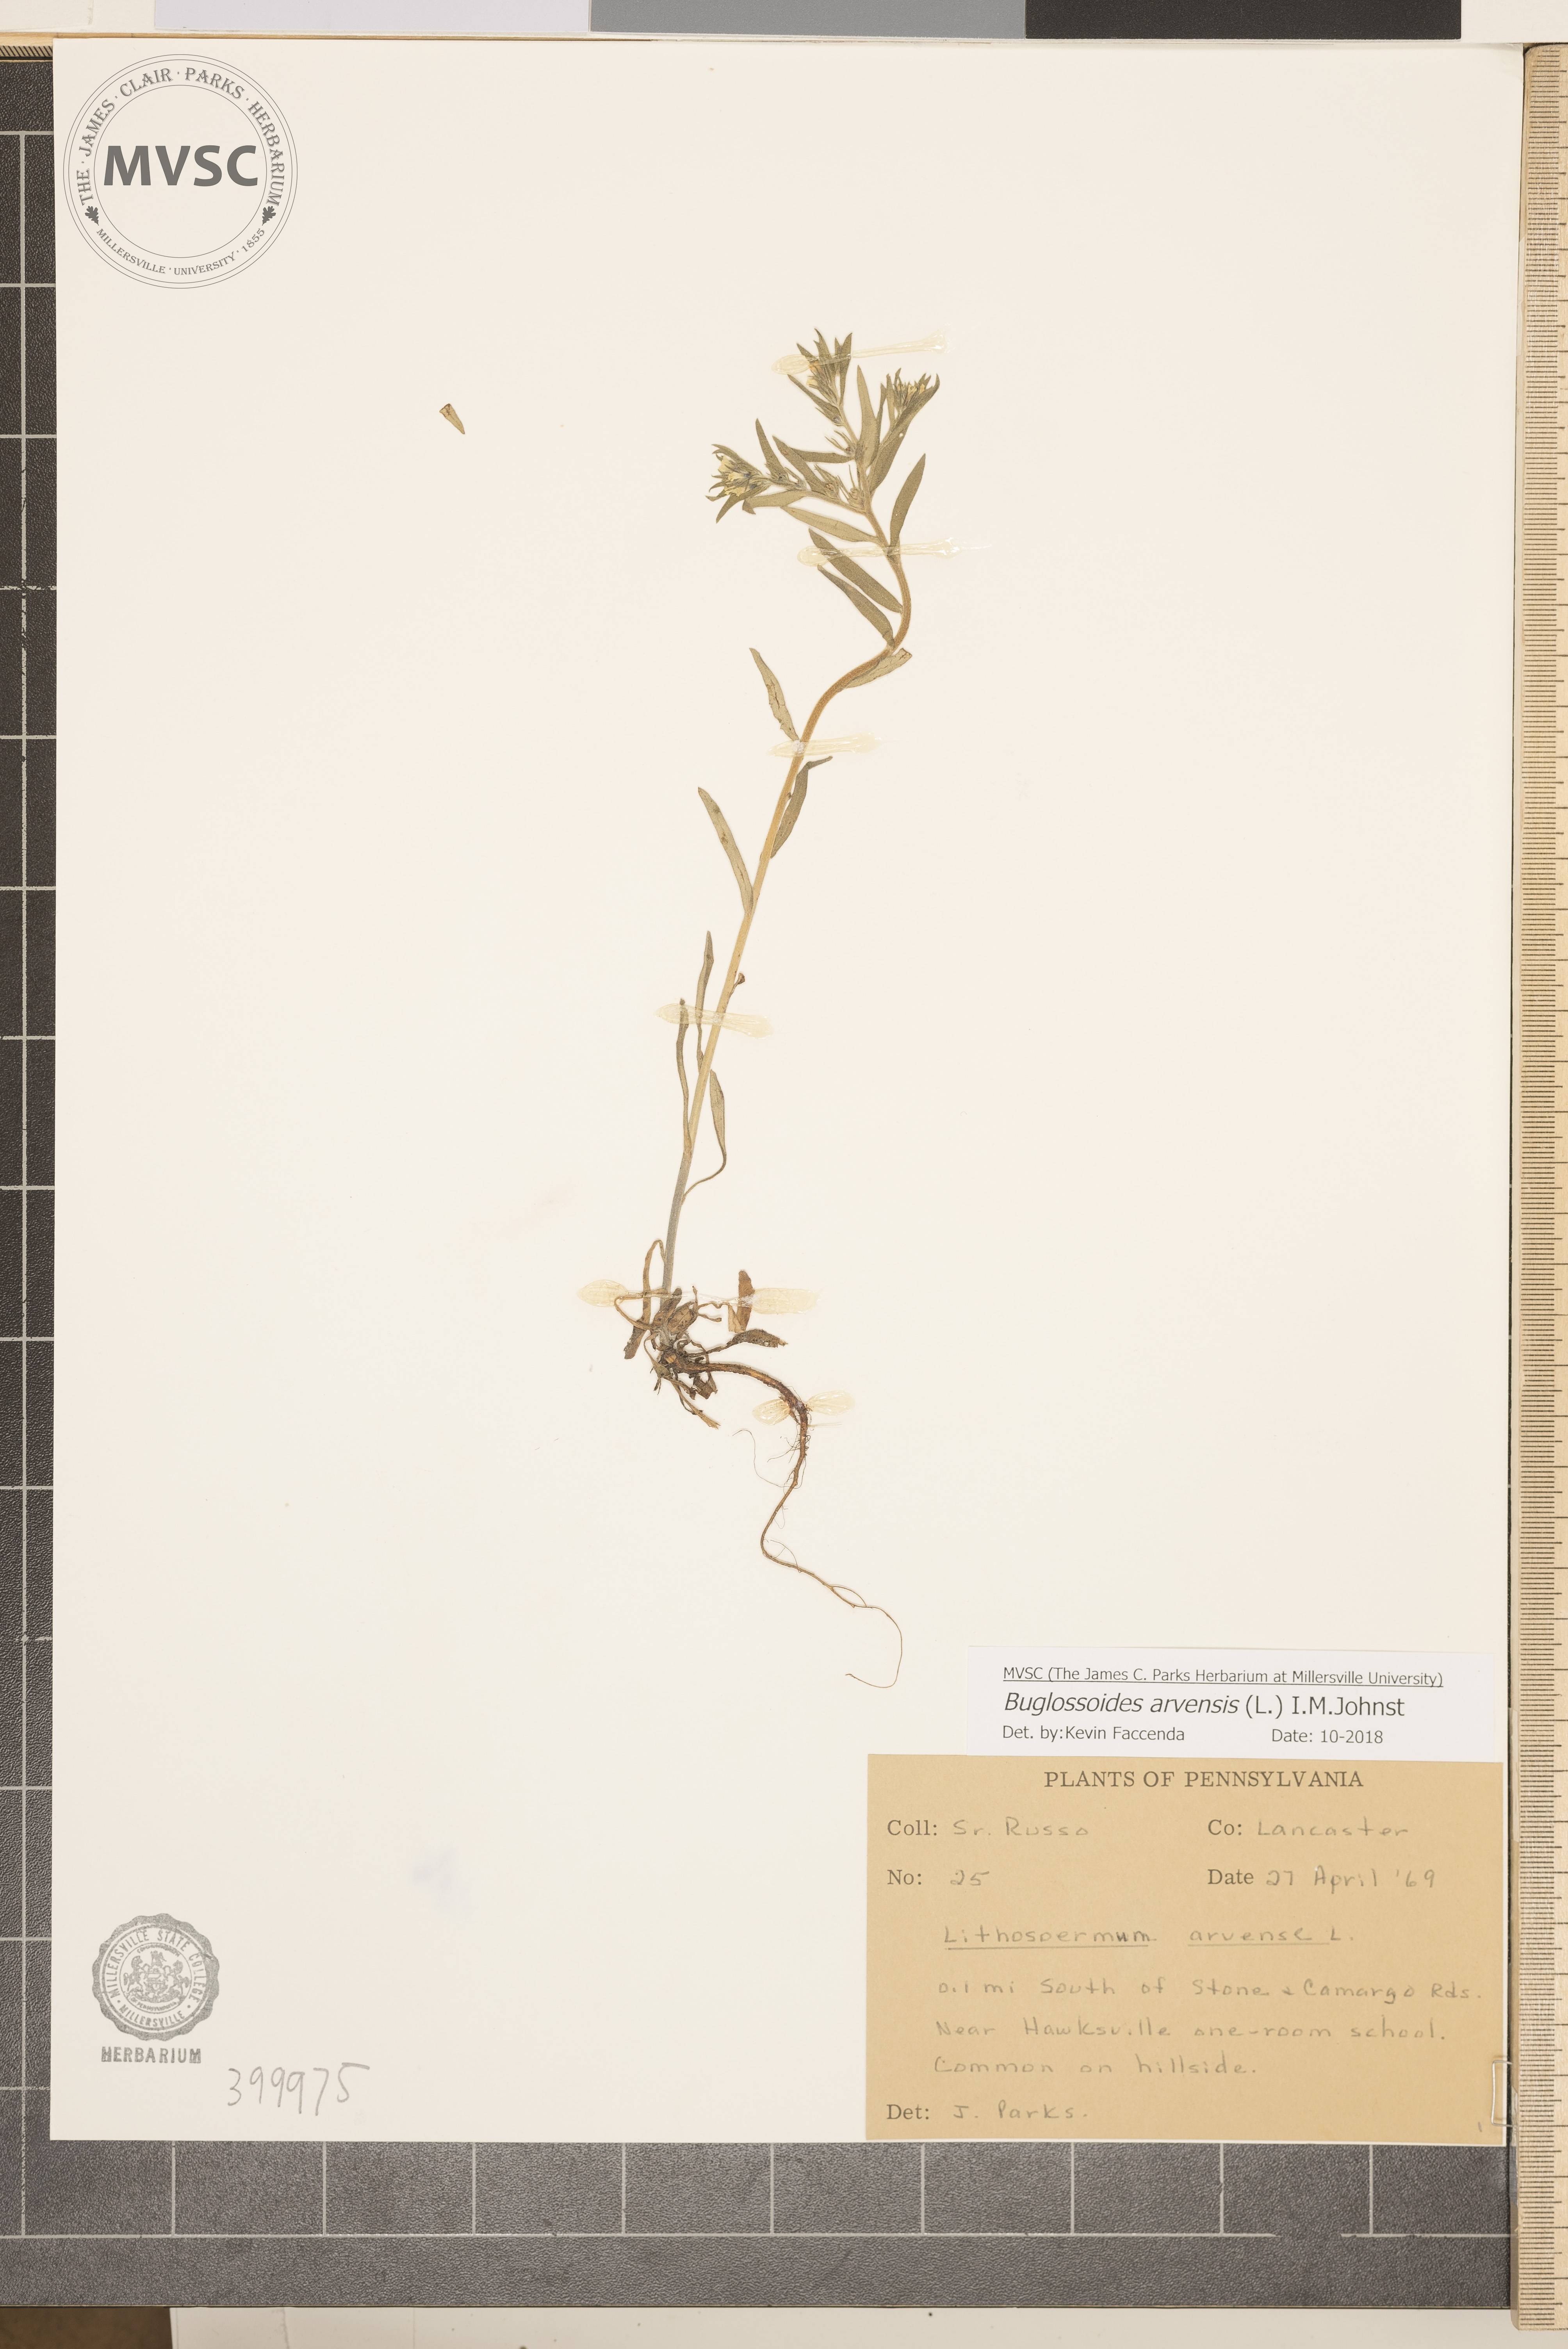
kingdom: Plantae
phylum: Tracheophyta
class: Magnoliopsida
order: Boraginales
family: Boraginaceae
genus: Buglossoides
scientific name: Buglossoides arvensis
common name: Corn gromwell
